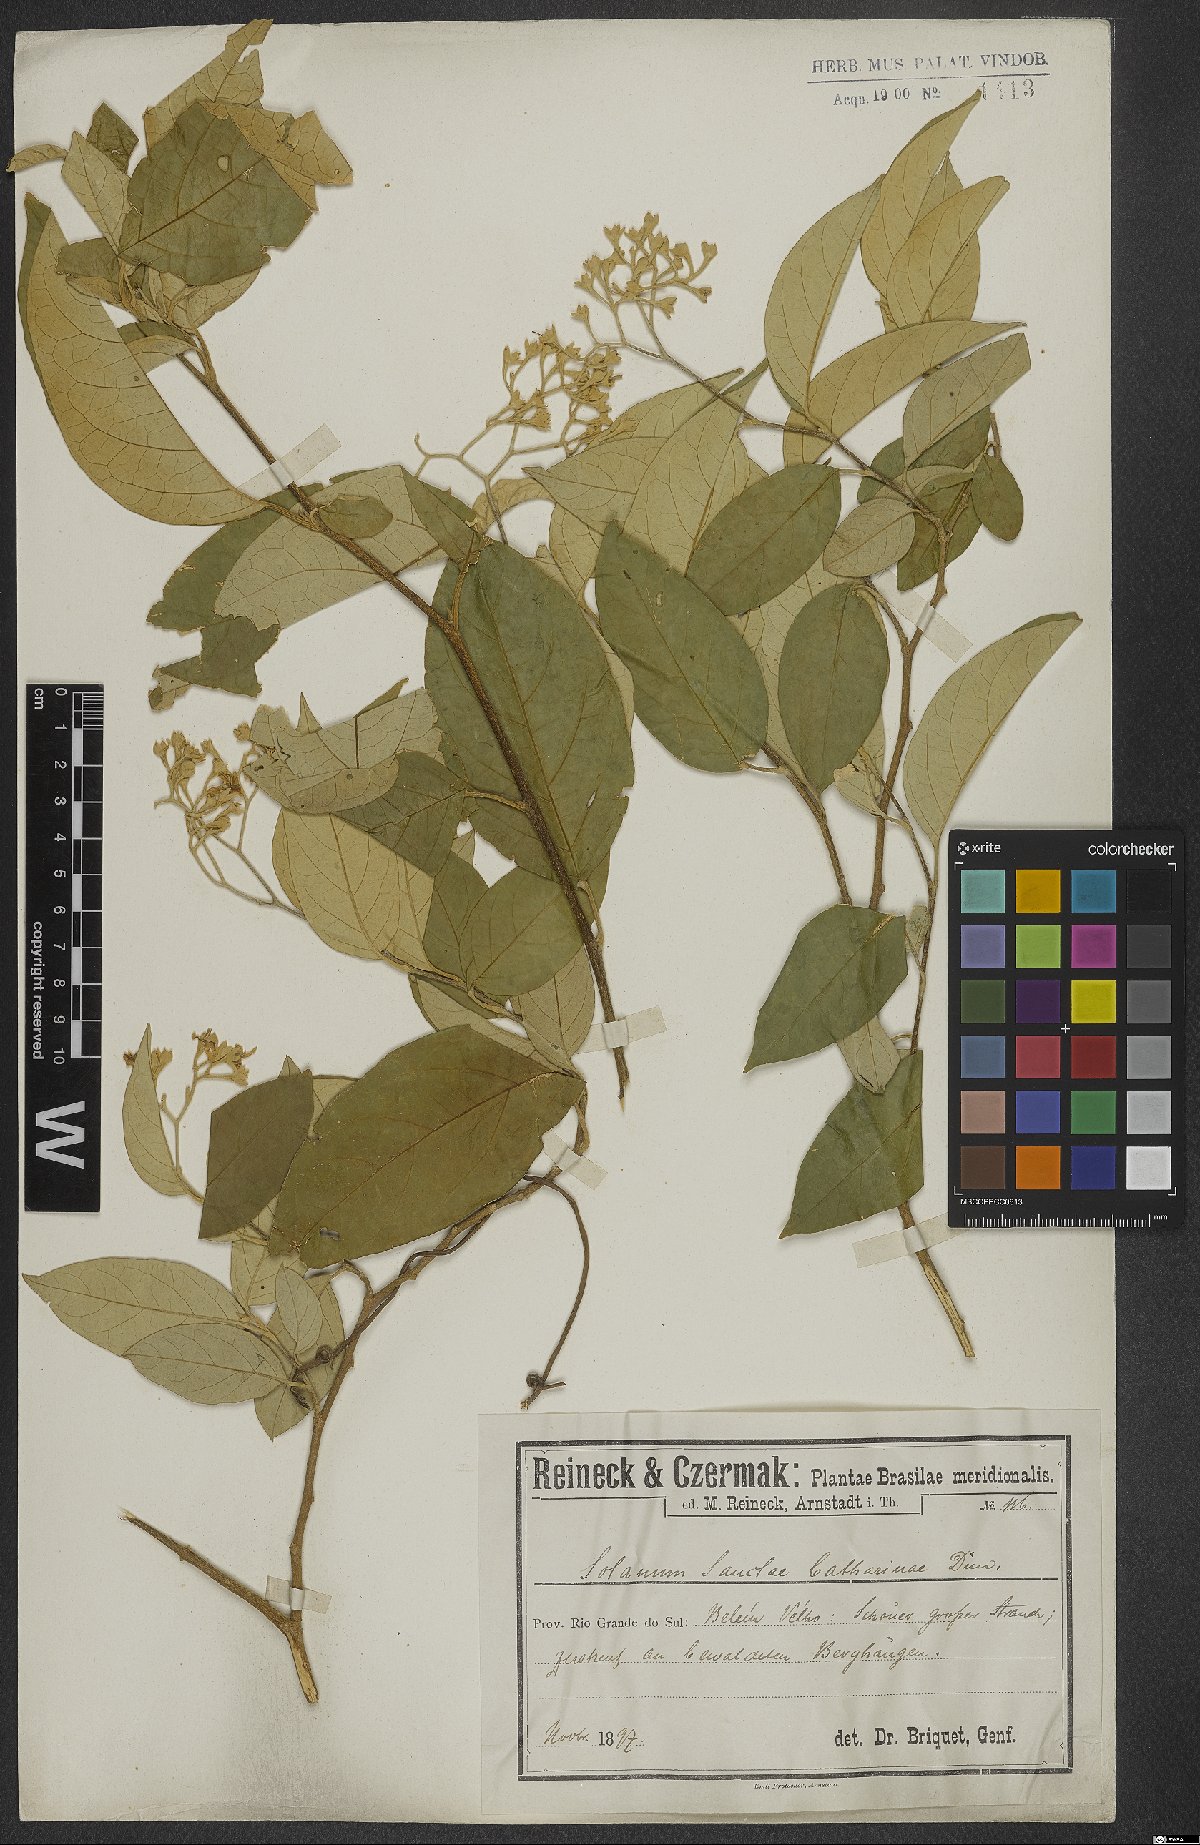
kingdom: Plantae
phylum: Tracheophyta
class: Magnoliopsida
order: Solanales
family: Solanaceae
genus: Solanum
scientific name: Solanum sanctae-catharinae
